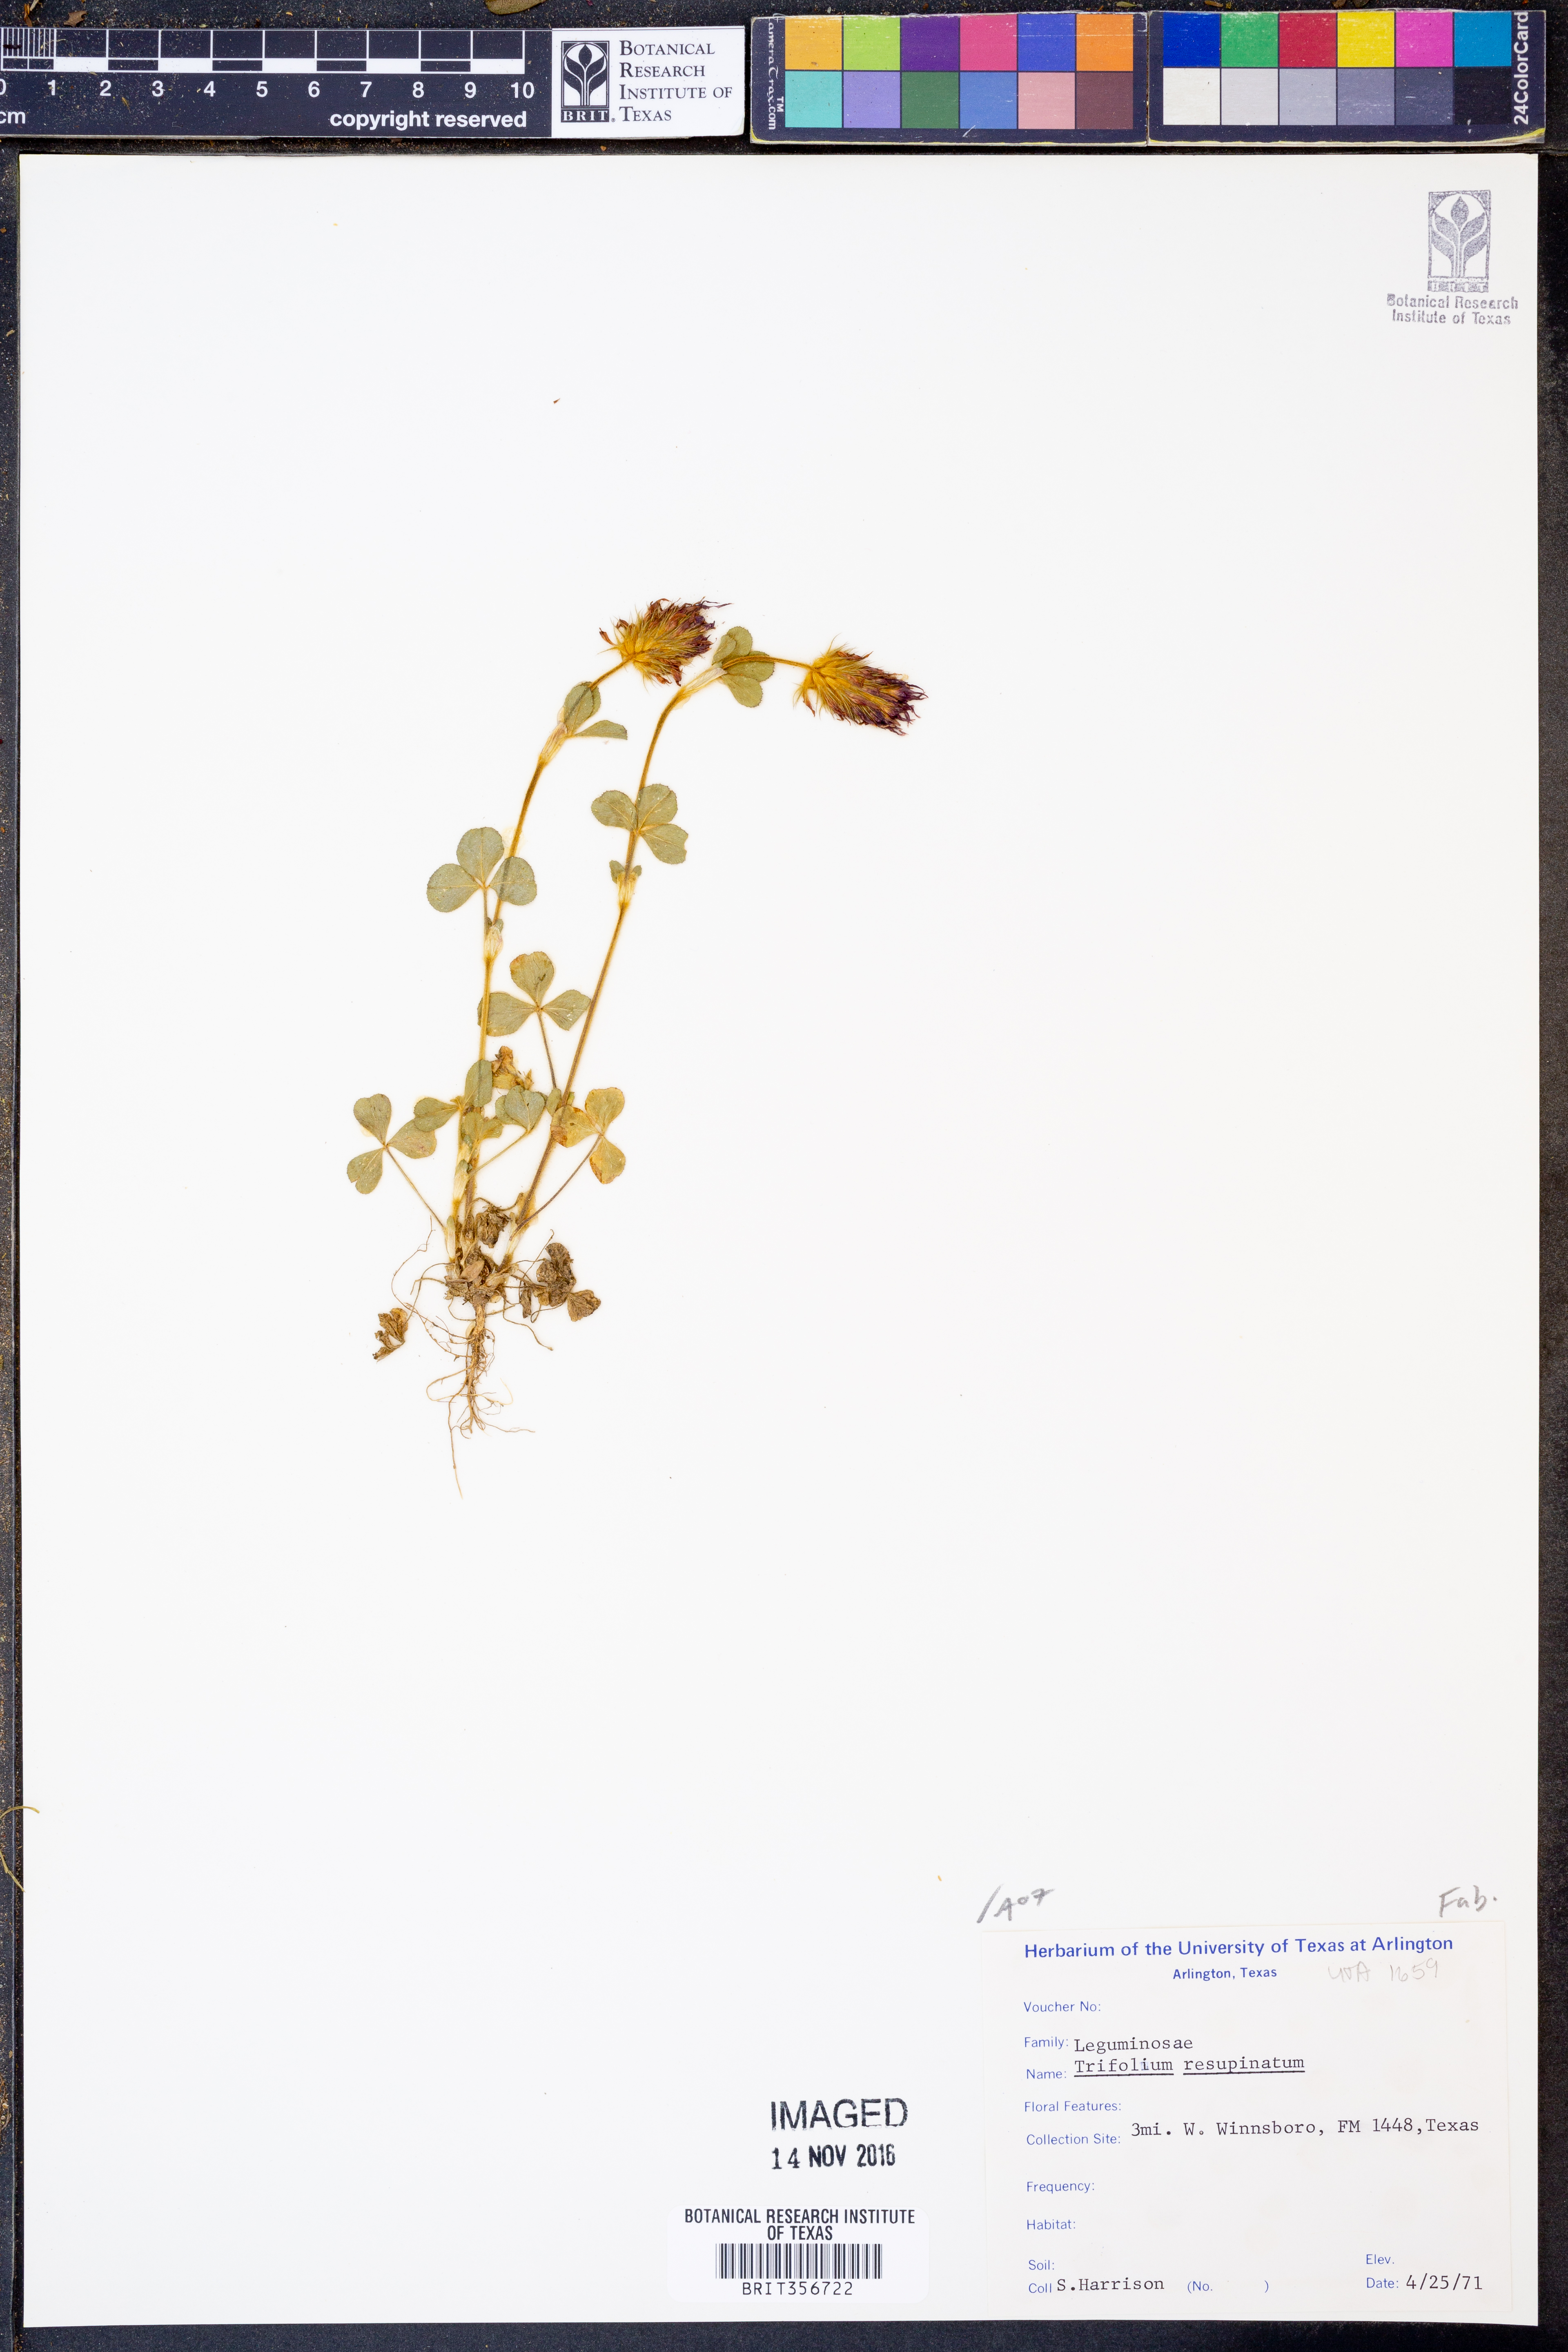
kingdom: Plantae
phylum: Tracheophyta
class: Magnoliopsida
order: Fabales
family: Fabaceae
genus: Trifolium
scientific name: Trifolium resupinatum
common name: Reversed clover
